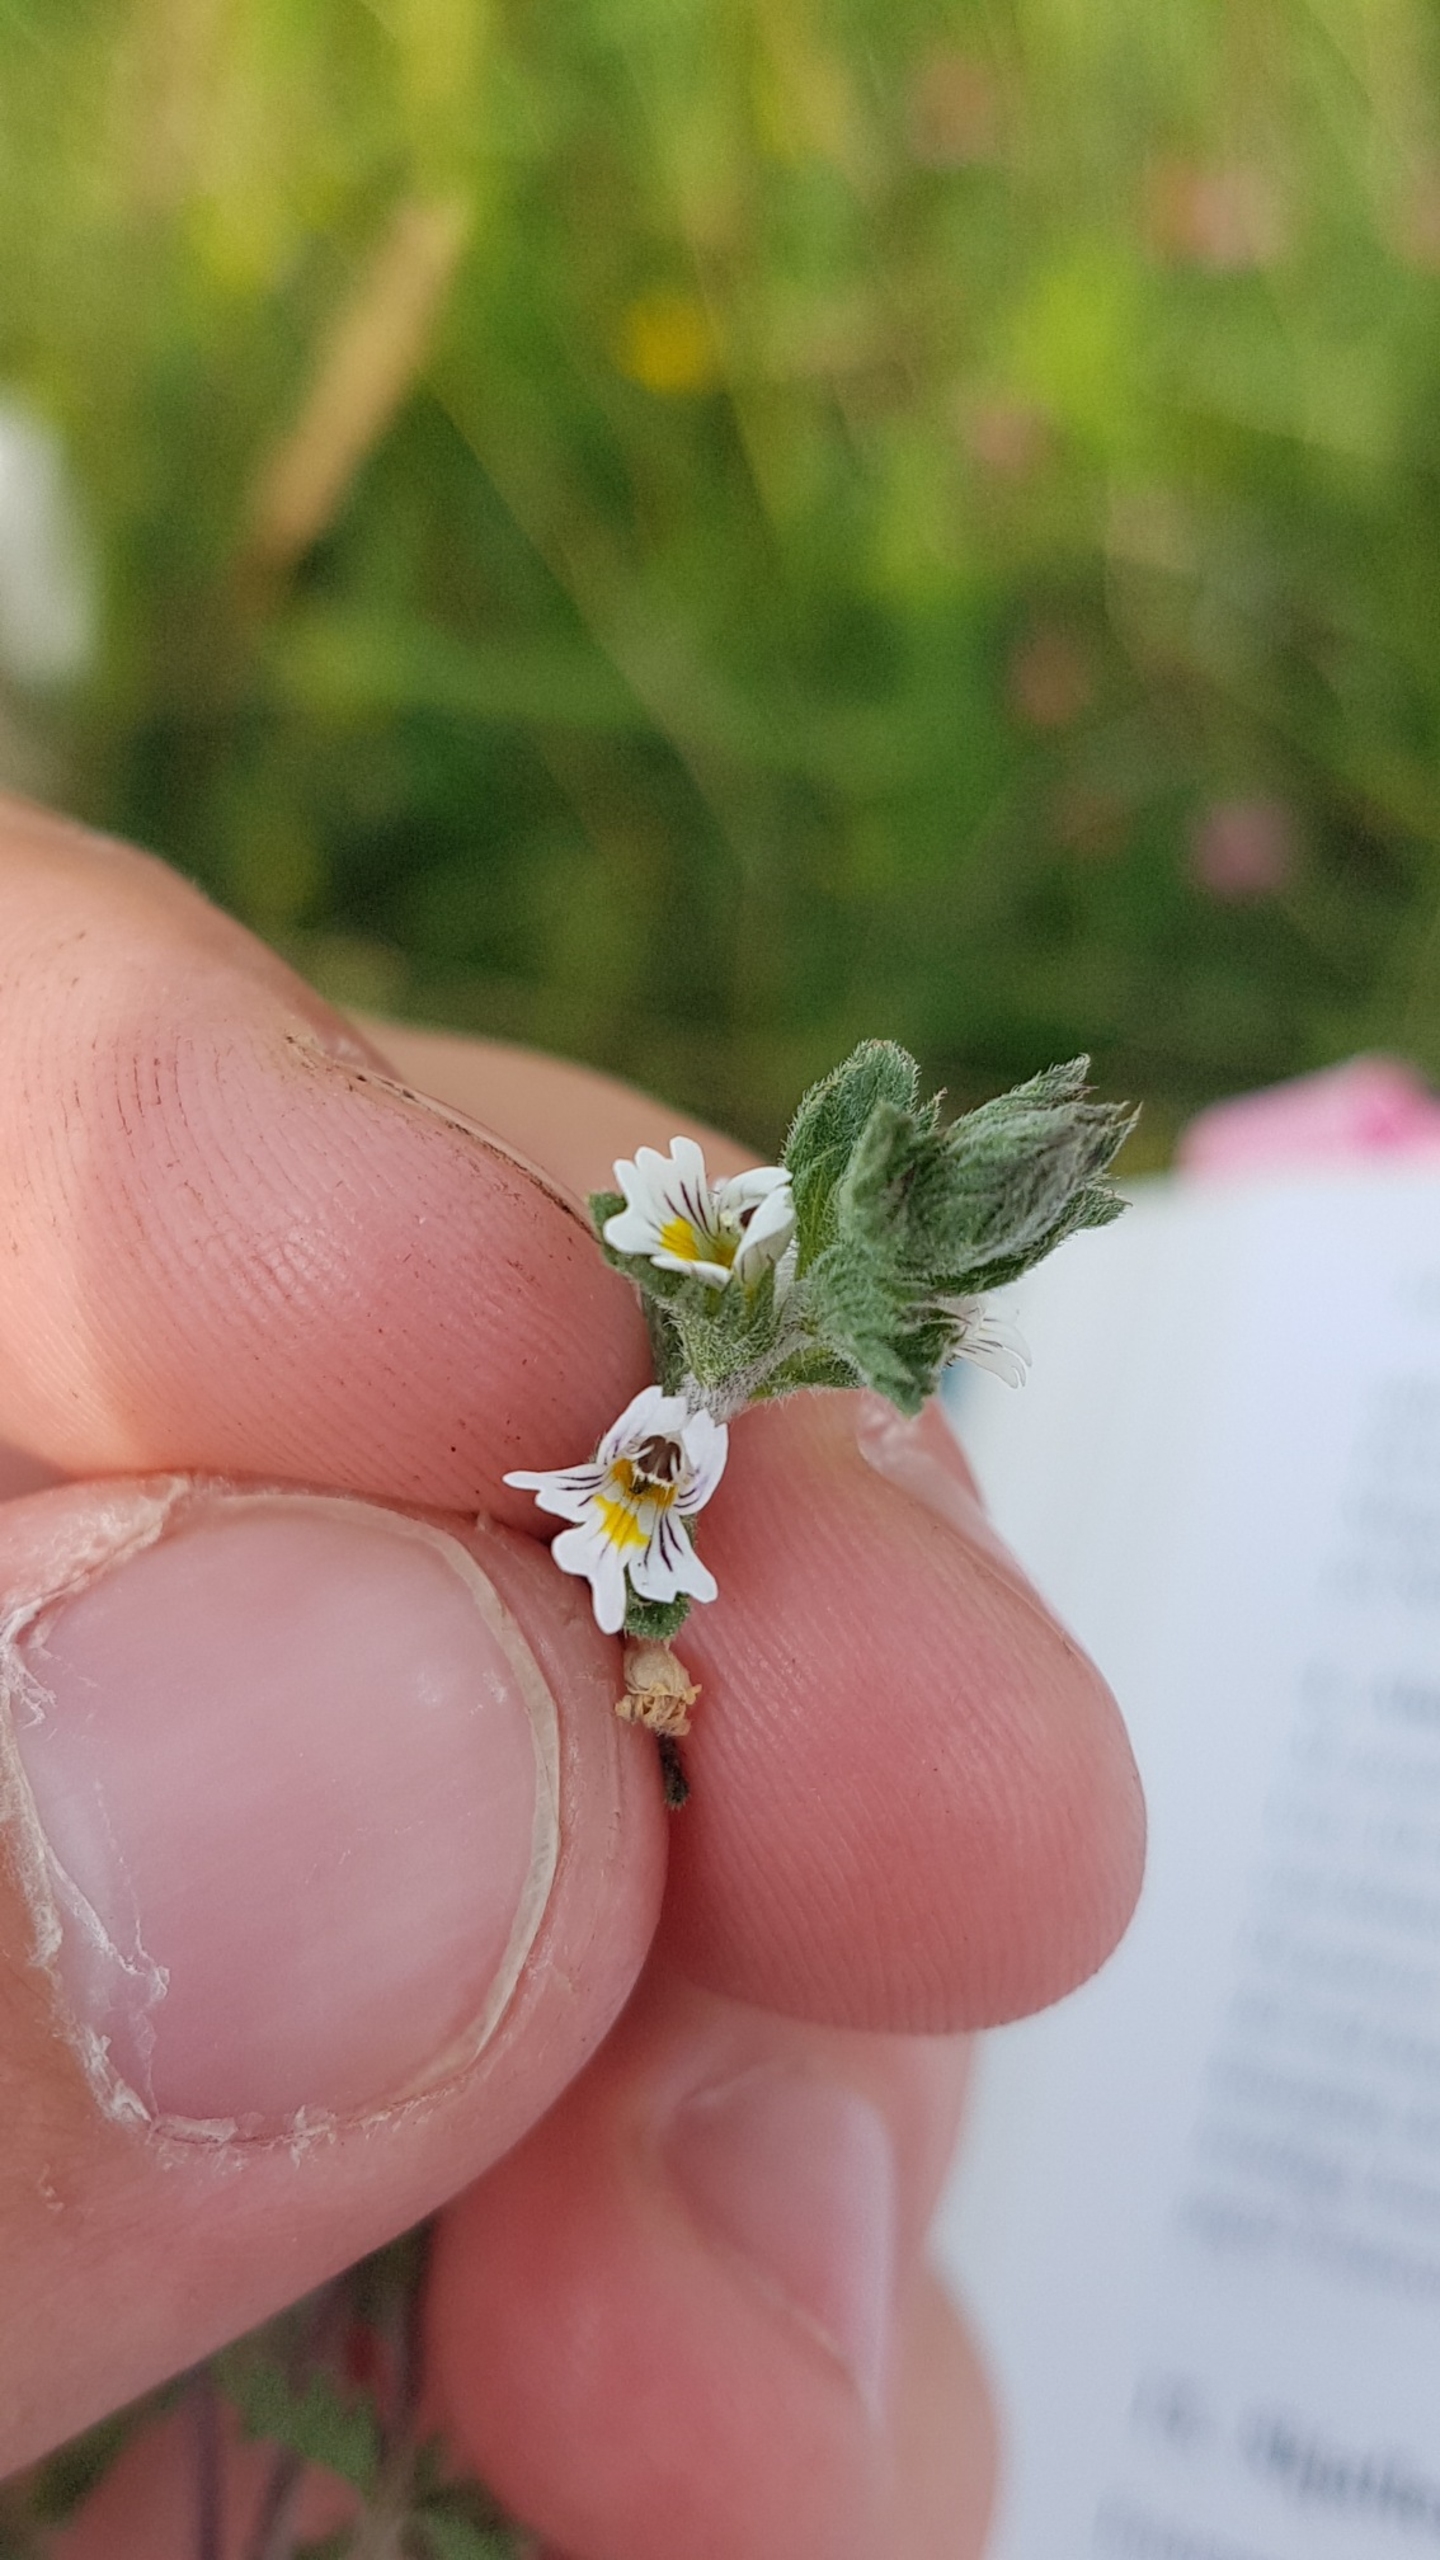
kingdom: Plantae
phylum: Tracheophyta
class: Magnoliopsida
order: Lamiales
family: Orobanchaceae
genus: Euphrasia
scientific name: Euphrasia stricta
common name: Spids øjentrøst
